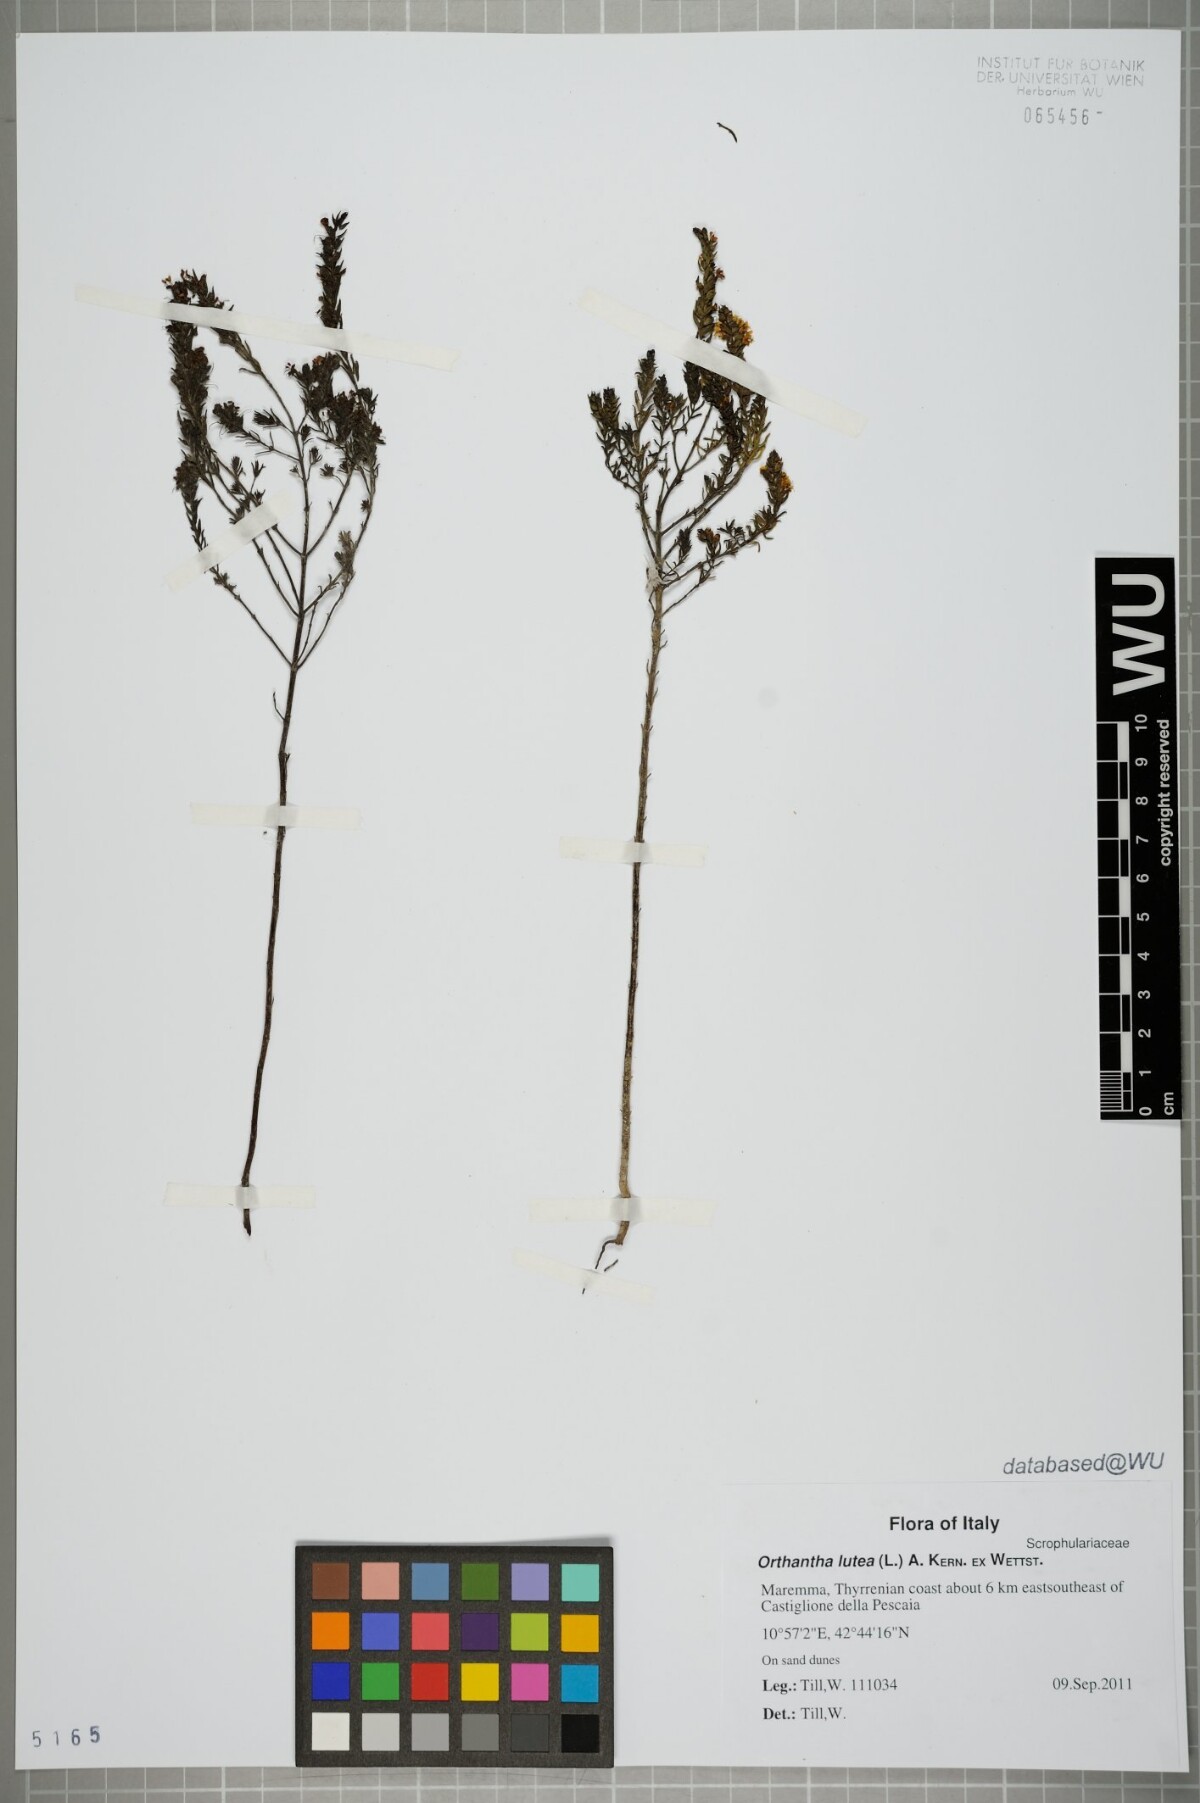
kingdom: Plantae
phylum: Tracheophyta
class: Magnoliopsida
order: Lamiales
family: Orobanchaceae
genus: Odontites
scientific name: Odontites luteus
